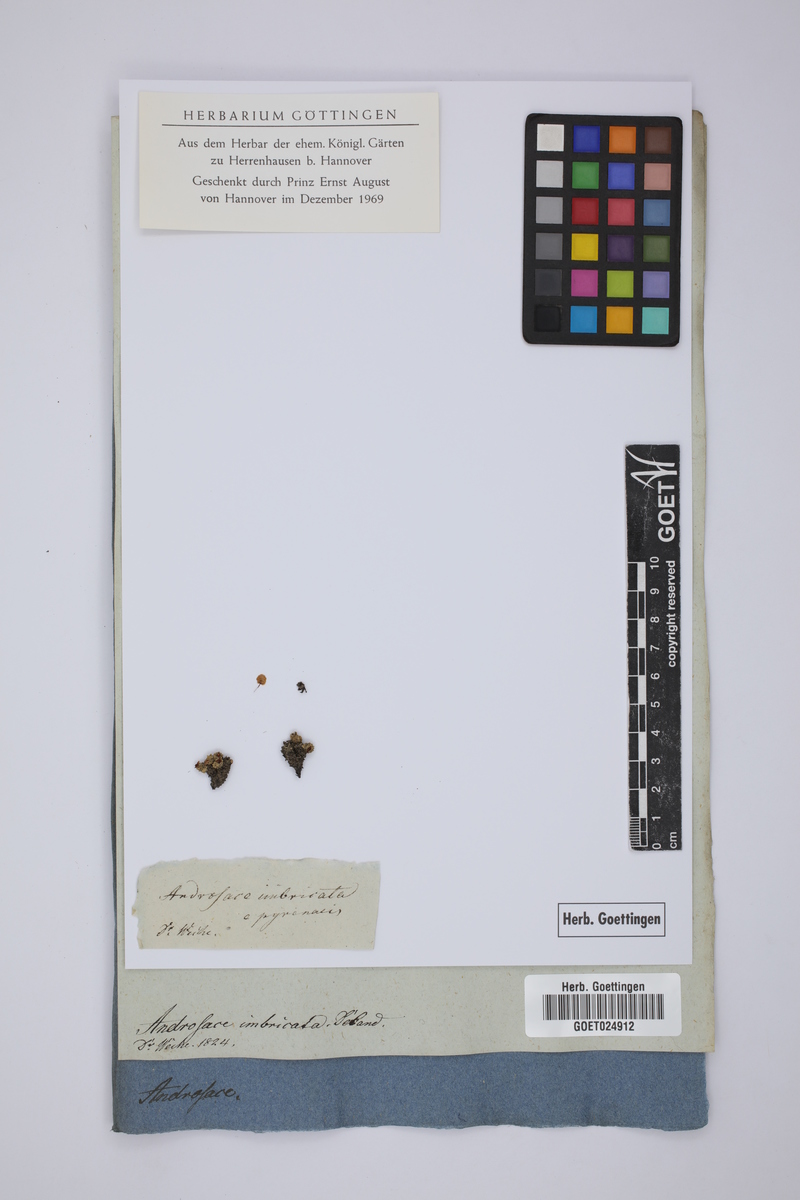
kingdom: Plantae
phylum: Tracheophyta
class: Magnoliopsida
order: Ericales
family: Primulaceae
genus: Androsace
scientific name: Androsace helvetica
